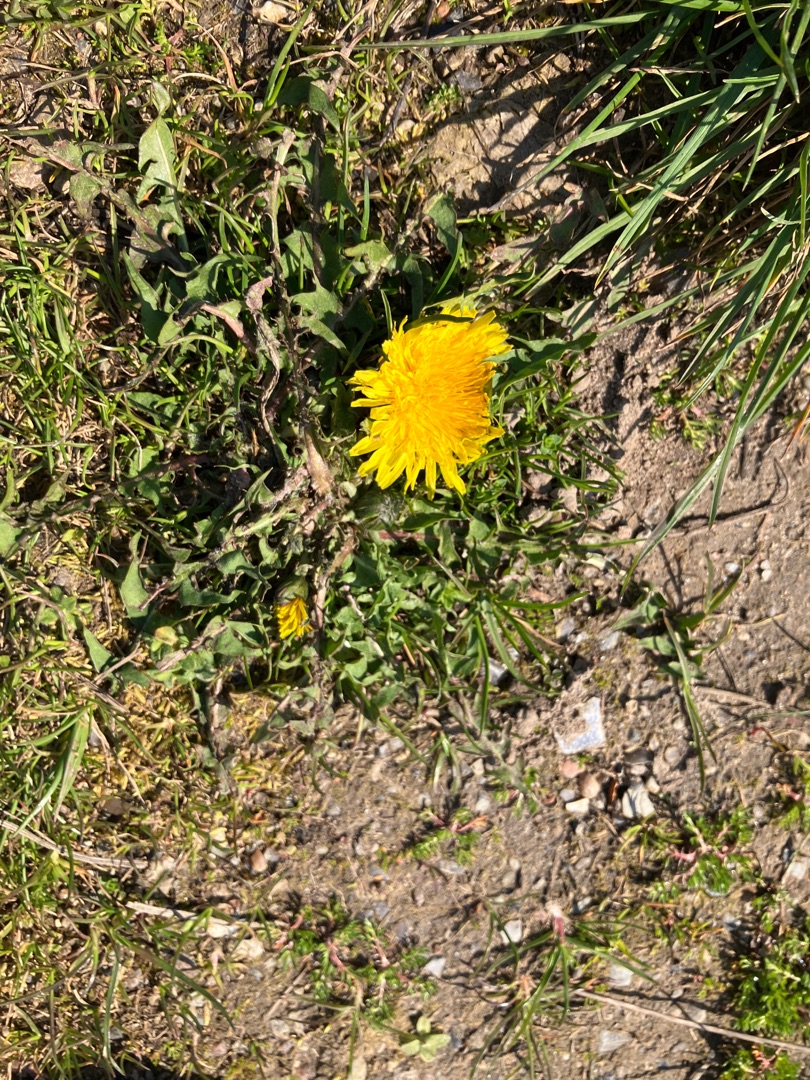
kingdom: Plantae
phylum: Tracheophyta
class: Magnoliopsida
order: Asterales
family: Asteraceae
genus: Taraxacum
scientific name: Taraxacum
